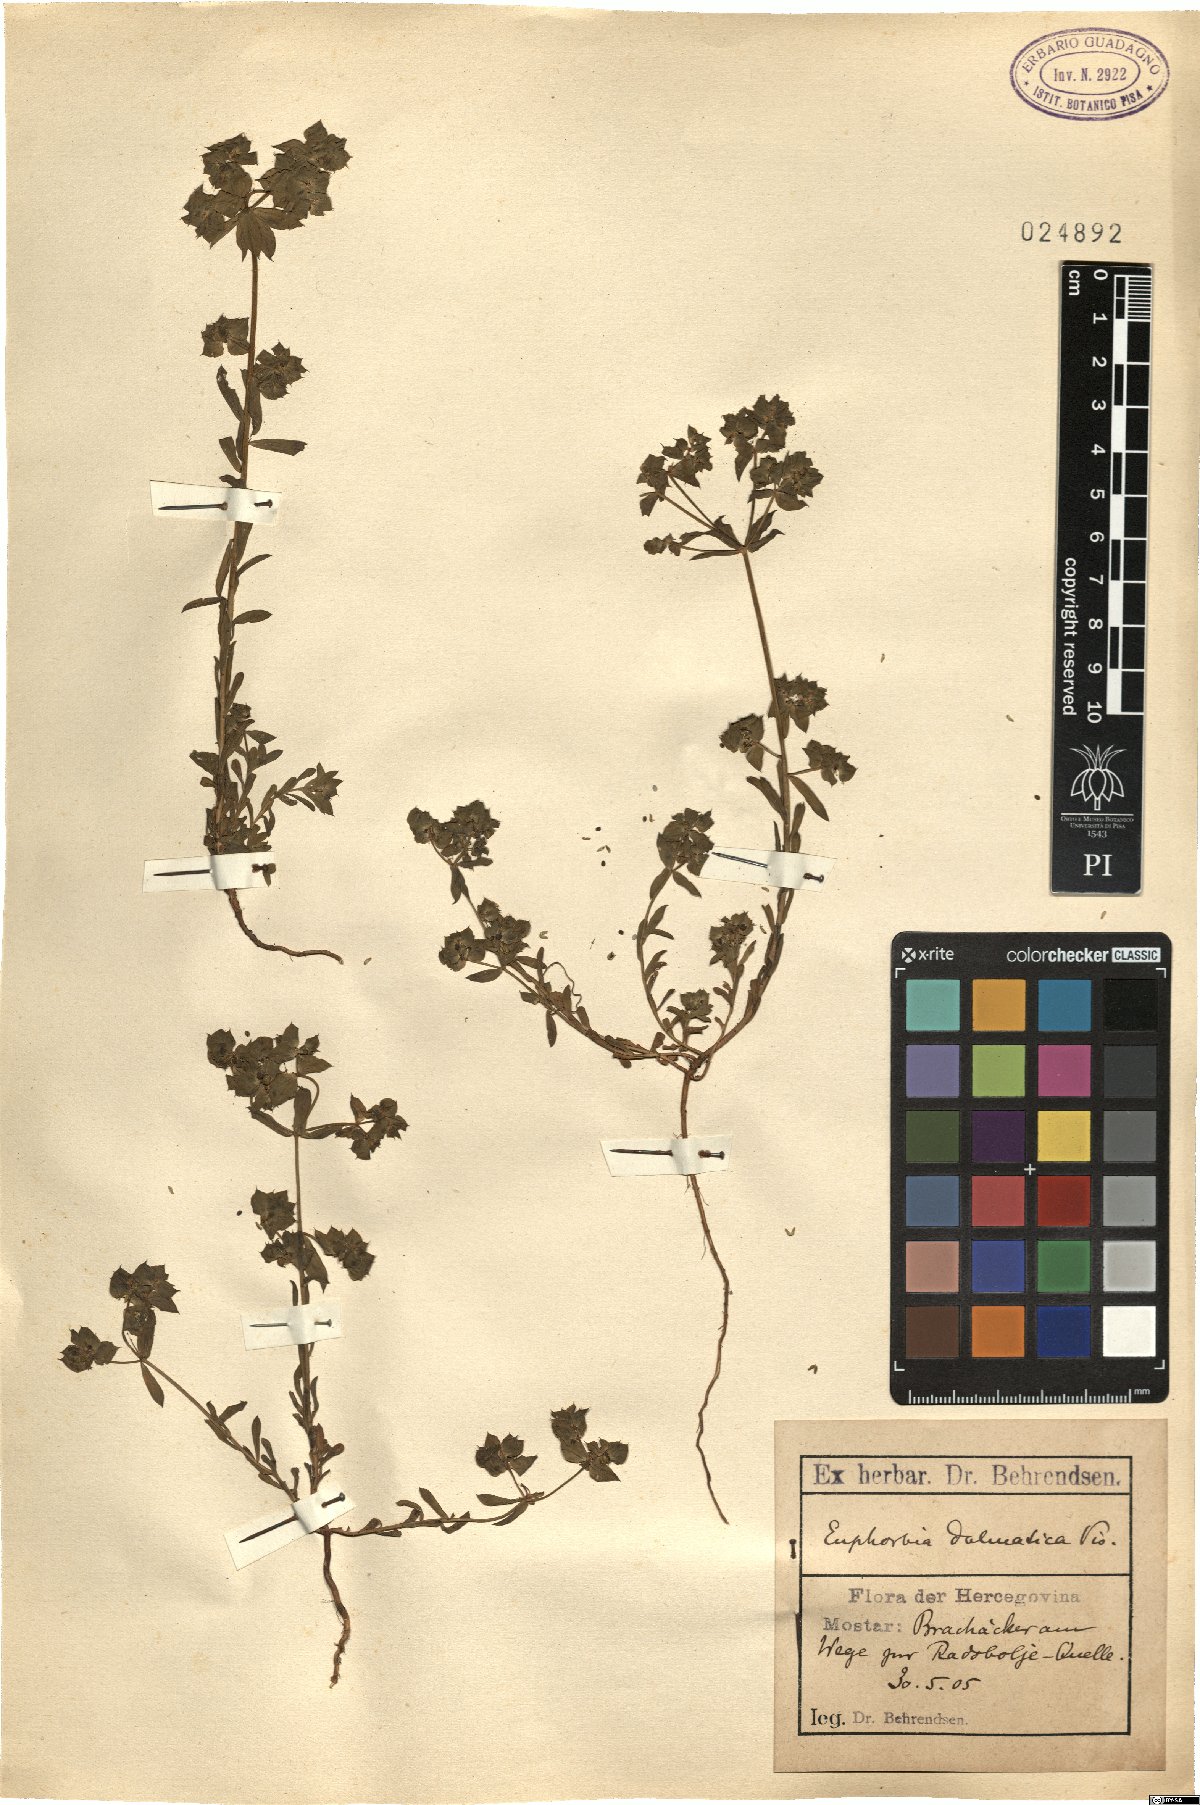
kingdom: Plantae
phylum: Tracheophyta
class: Magnoliopsida
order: Malpighiales
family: Euphorbiaceae
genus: Euphorbia
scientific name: Euphorbia taurinensis
